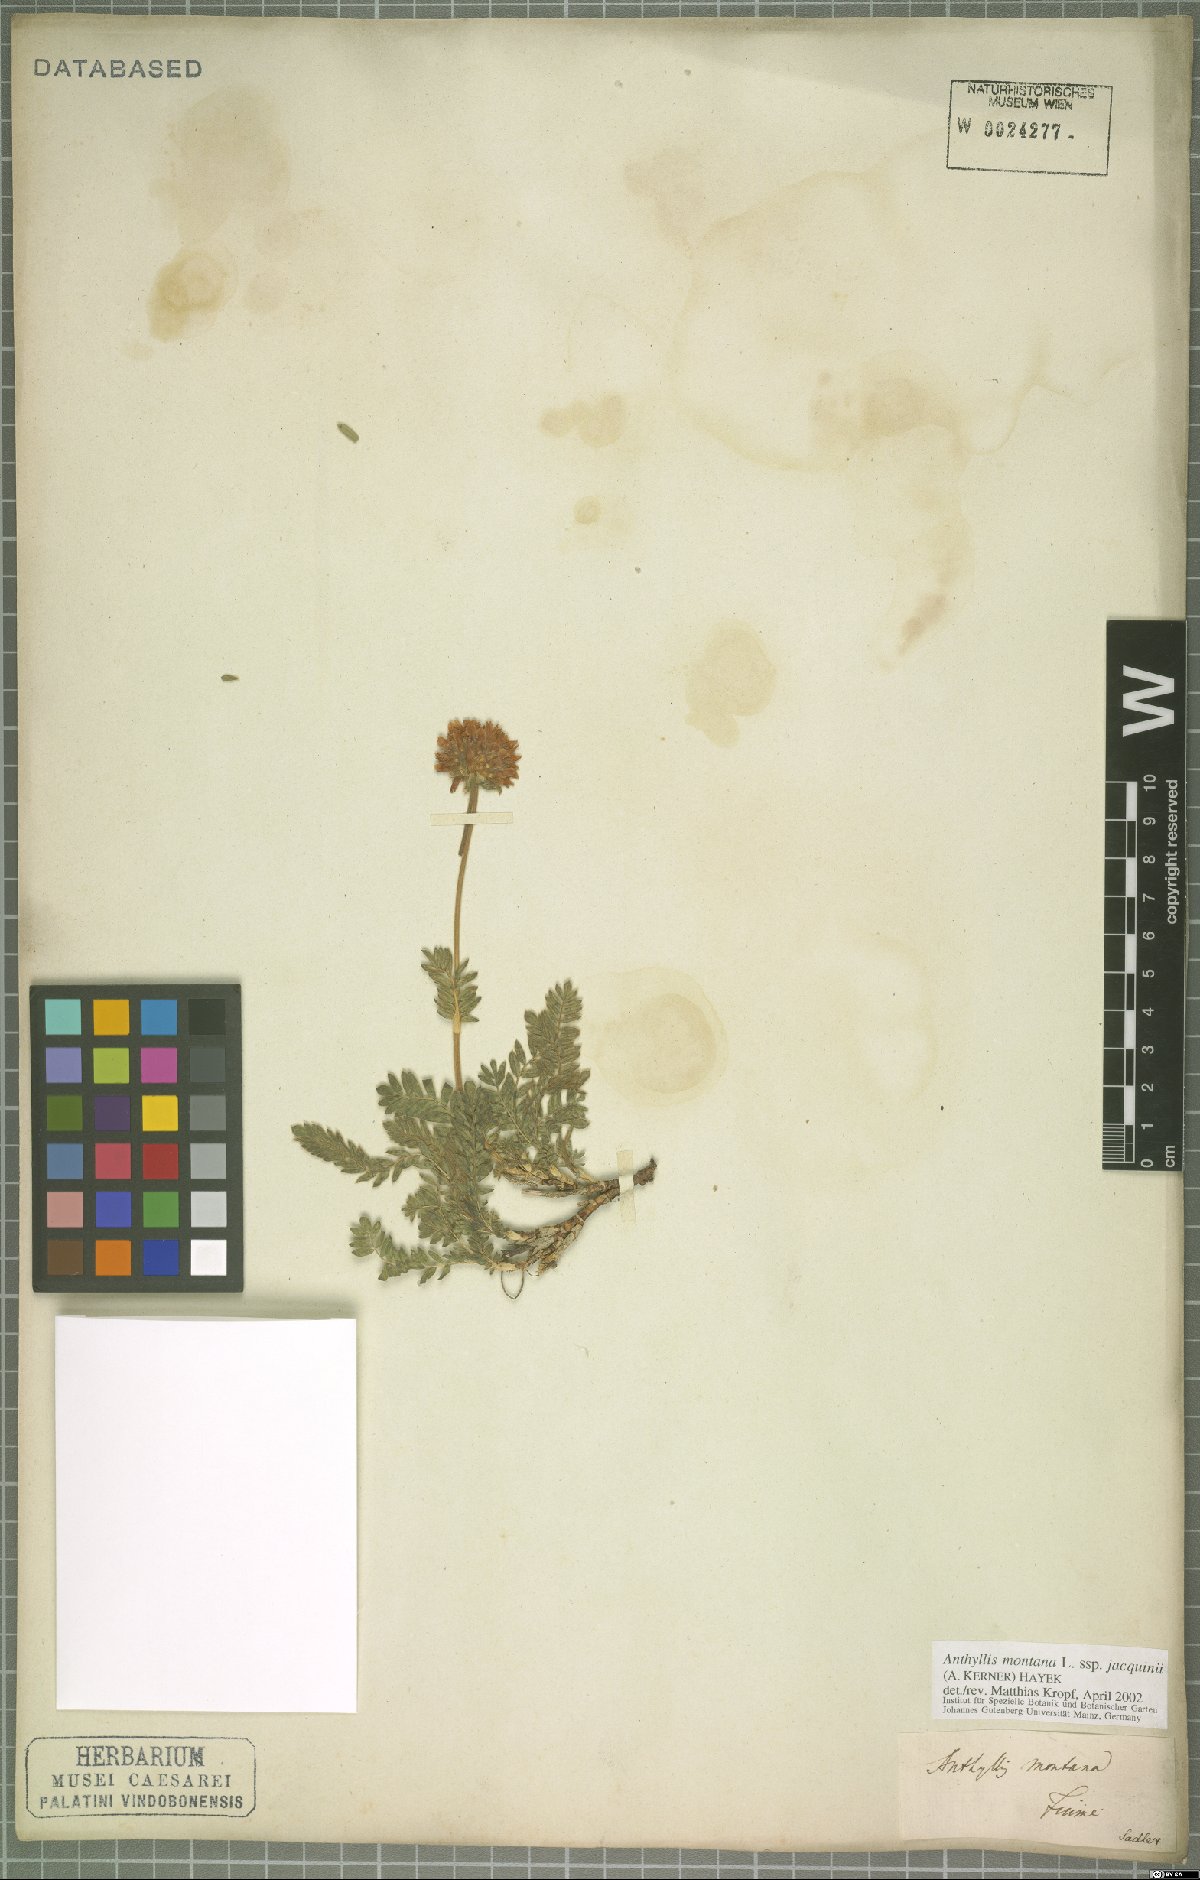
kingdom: Plantae
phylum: Tracheophyta
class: Magnoliopsida
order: Fabales
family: Fabaceae
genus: Anthyllis
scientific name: Anthyllis montana
